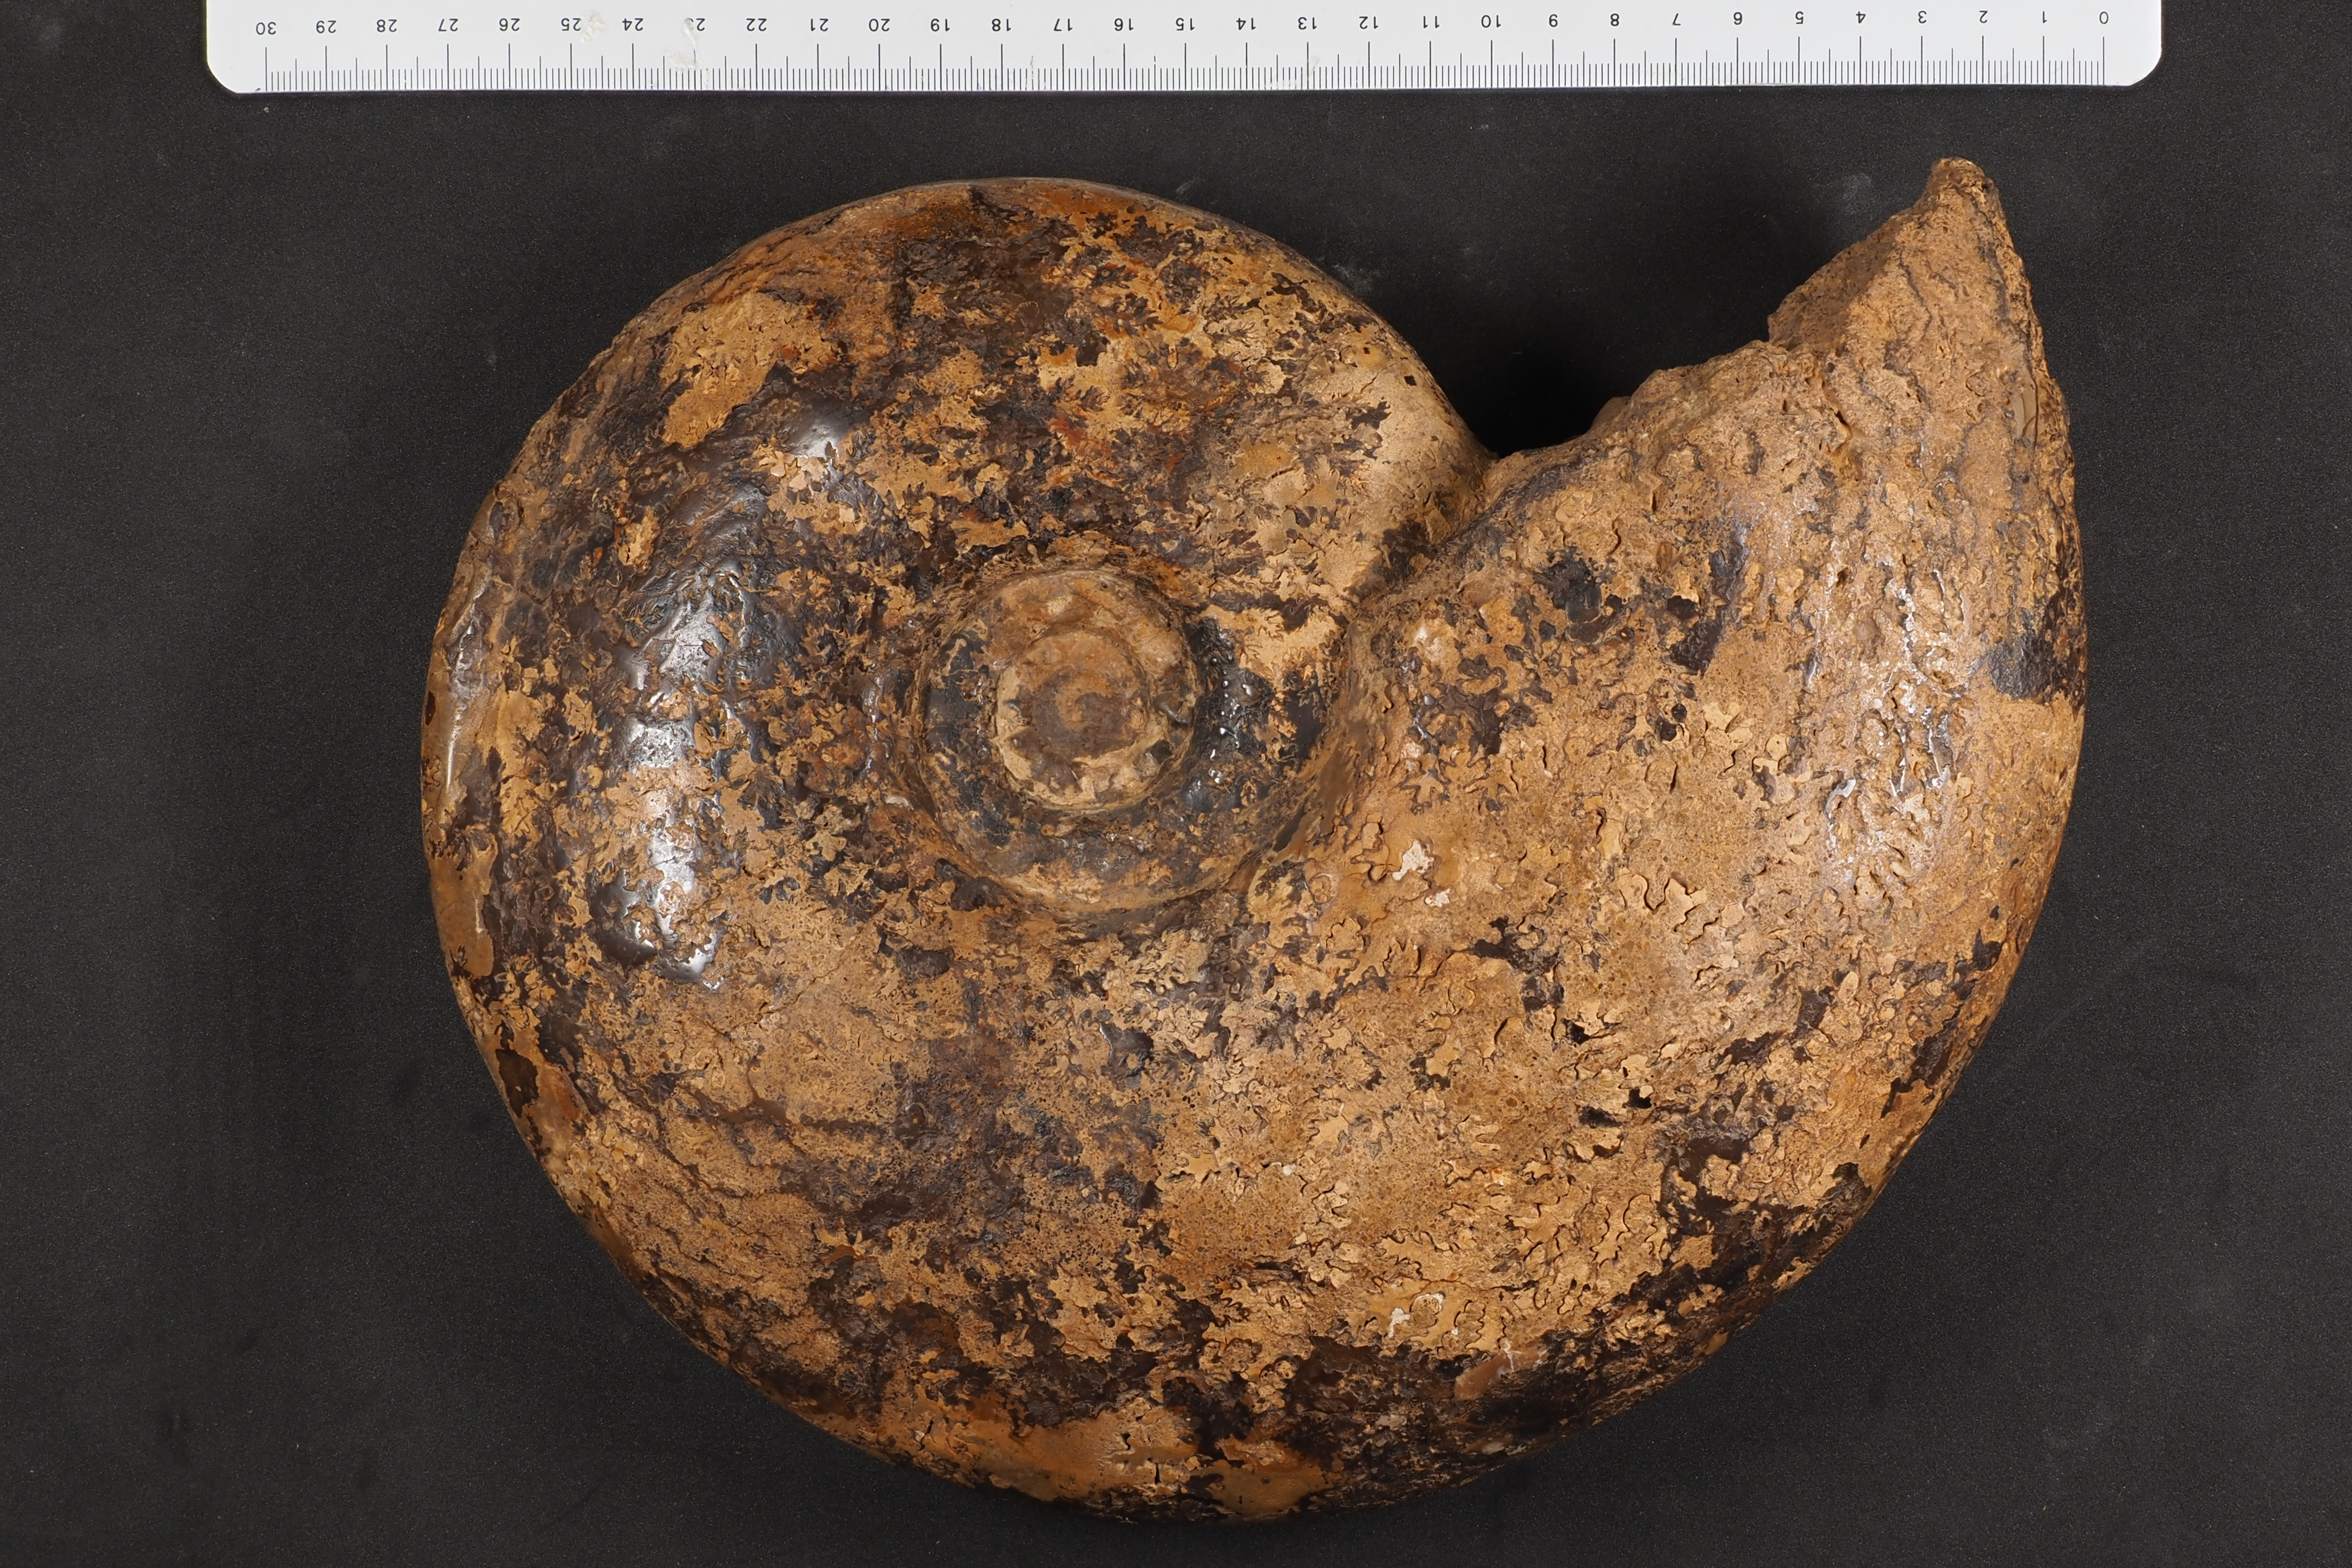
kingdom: Animalia
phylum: Mollusca
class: Cephalopoda
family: Hammatoceratidae
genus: Fissilobiceras
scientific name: Fissilobiceras
